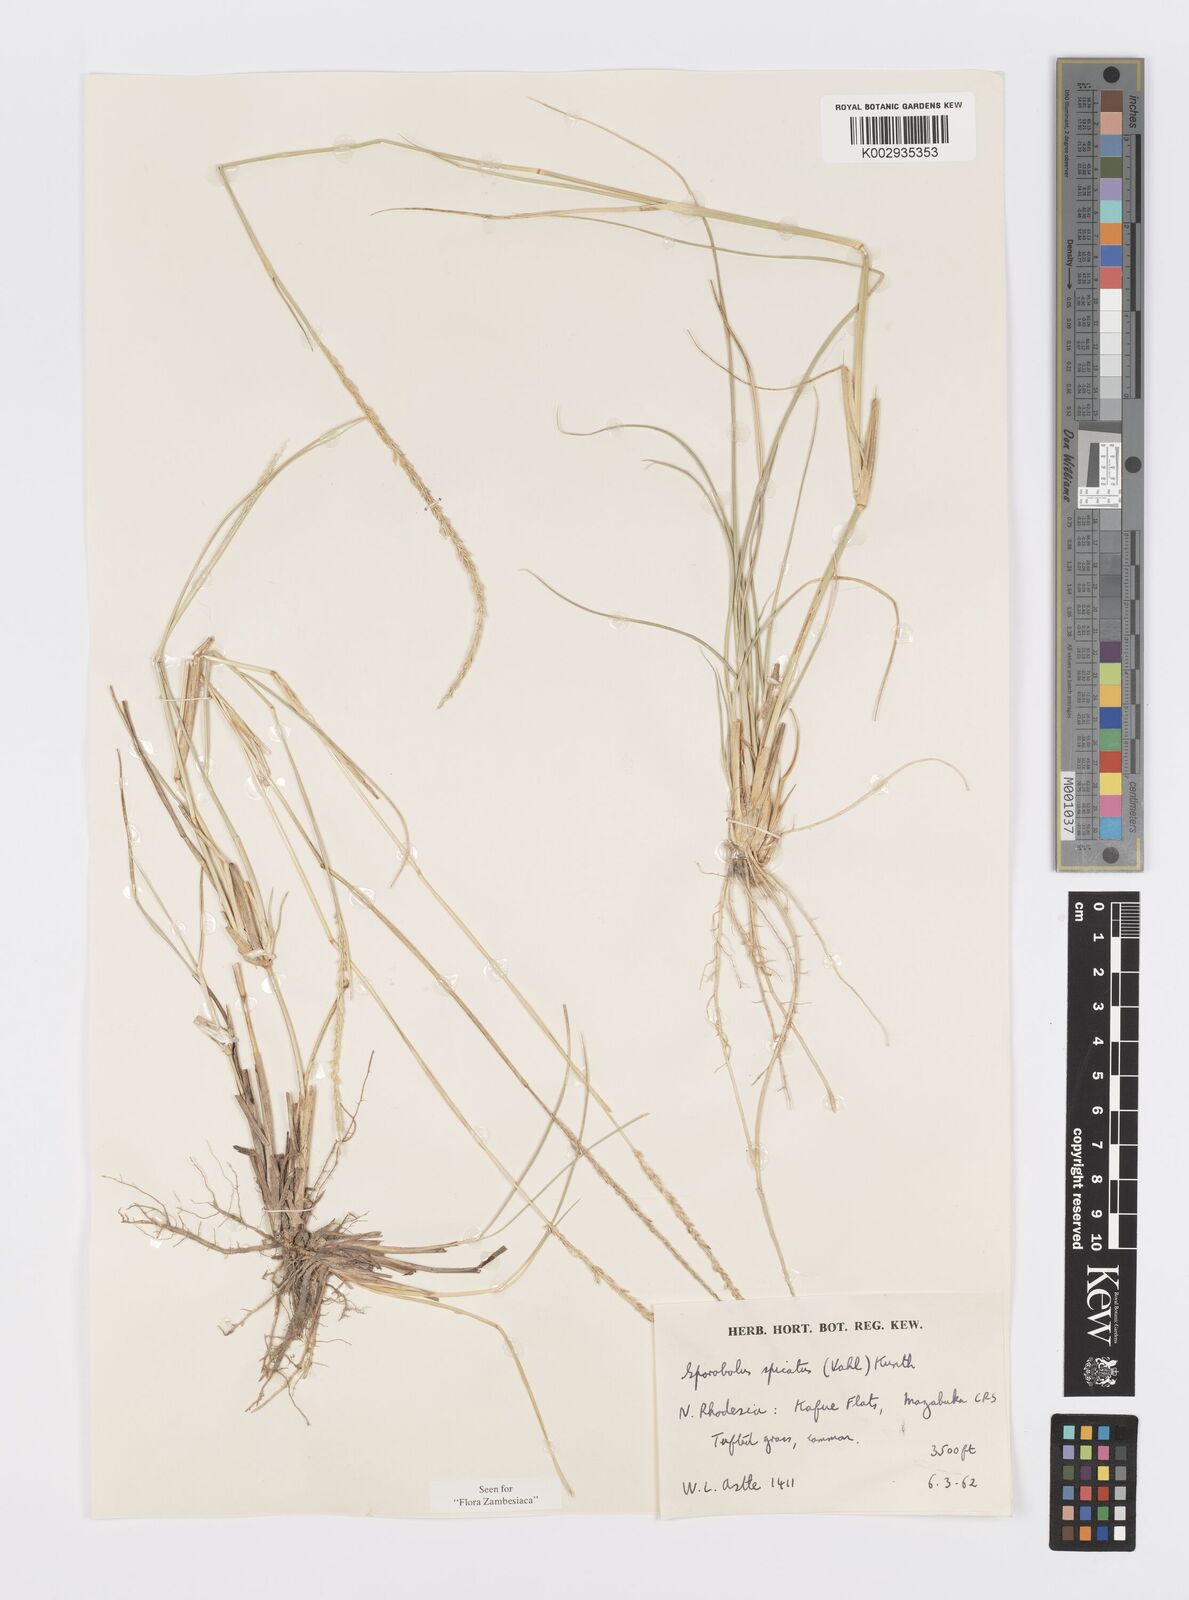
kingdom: Plantae
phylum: Tracheophyta
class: Liliopsida
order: Poales
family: Poaceae
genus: Sporobolus
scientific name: Sporobolus spicatus
